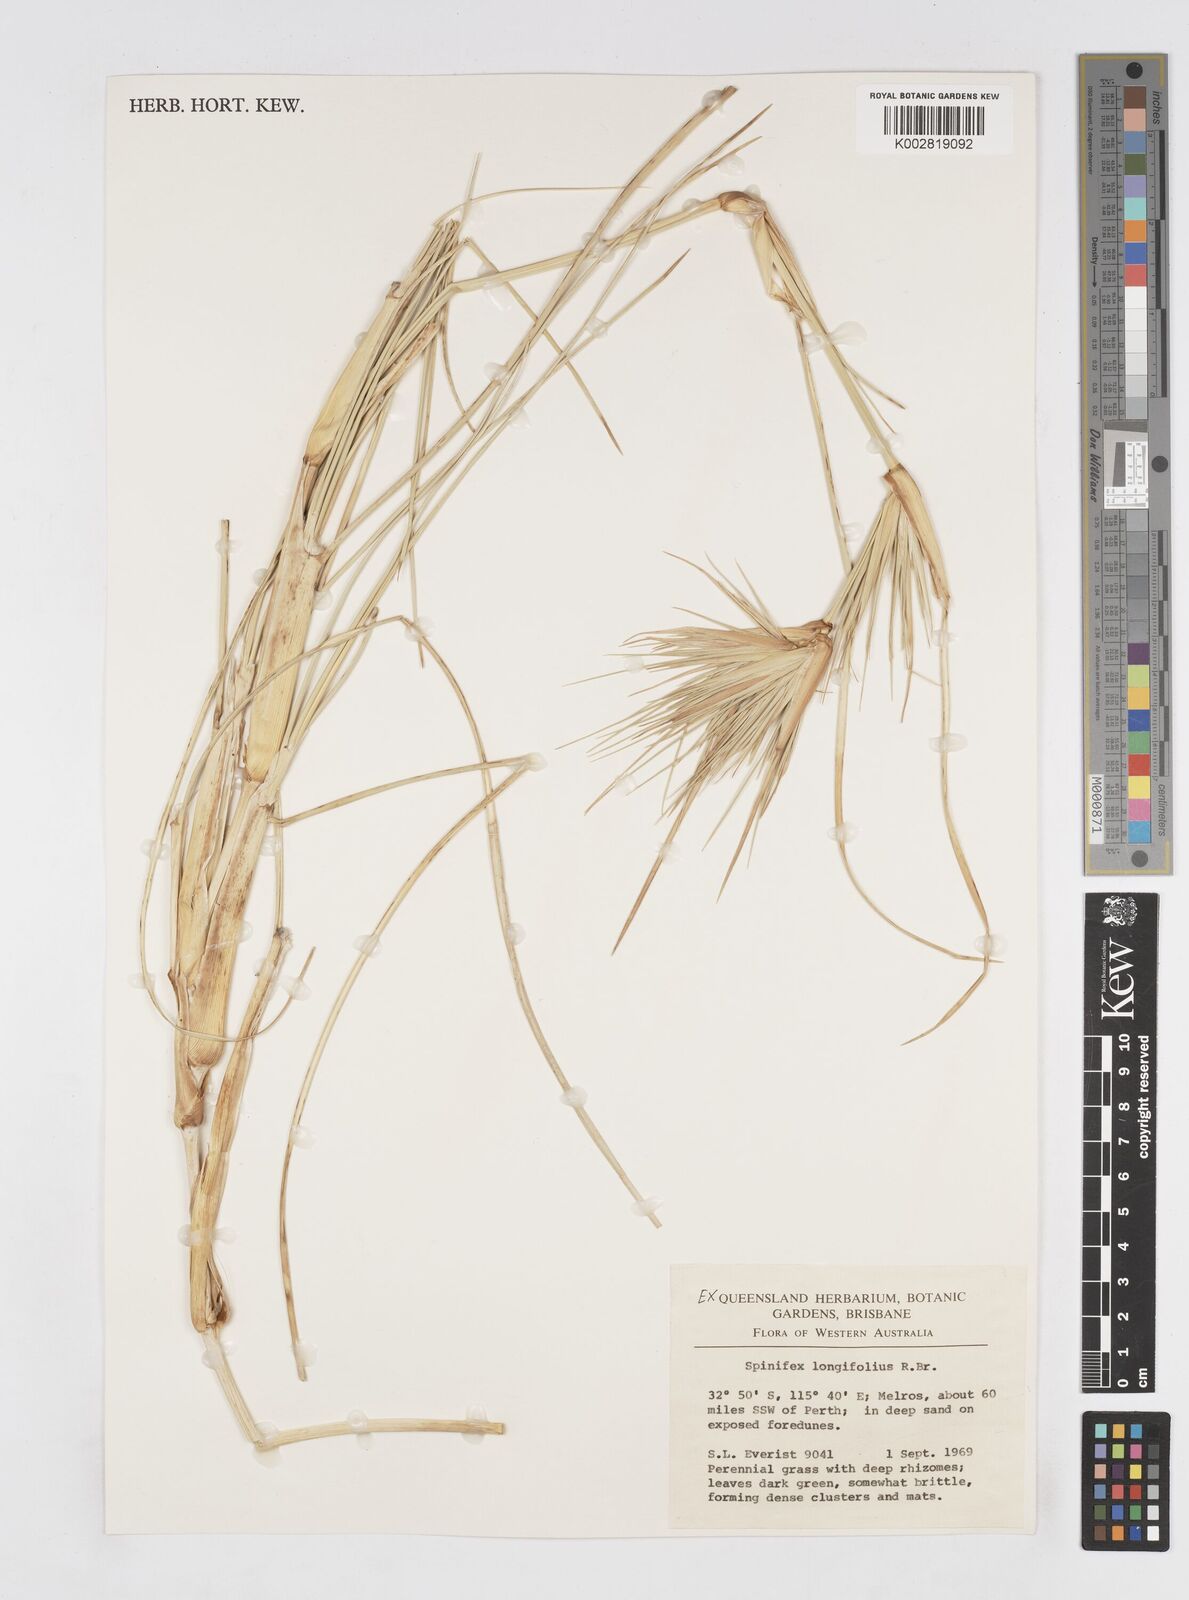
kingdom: Plantae
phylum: Tracheophyta
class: Liliopsida
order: Poales
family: Poaceae
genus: Spinifex
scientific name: Spinifex longifolius
